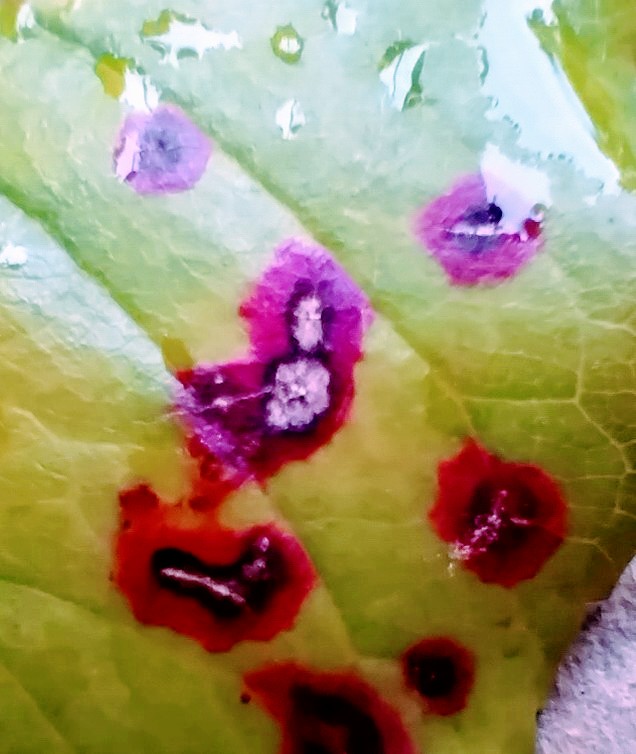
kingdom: Fungi
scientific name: Fungi
